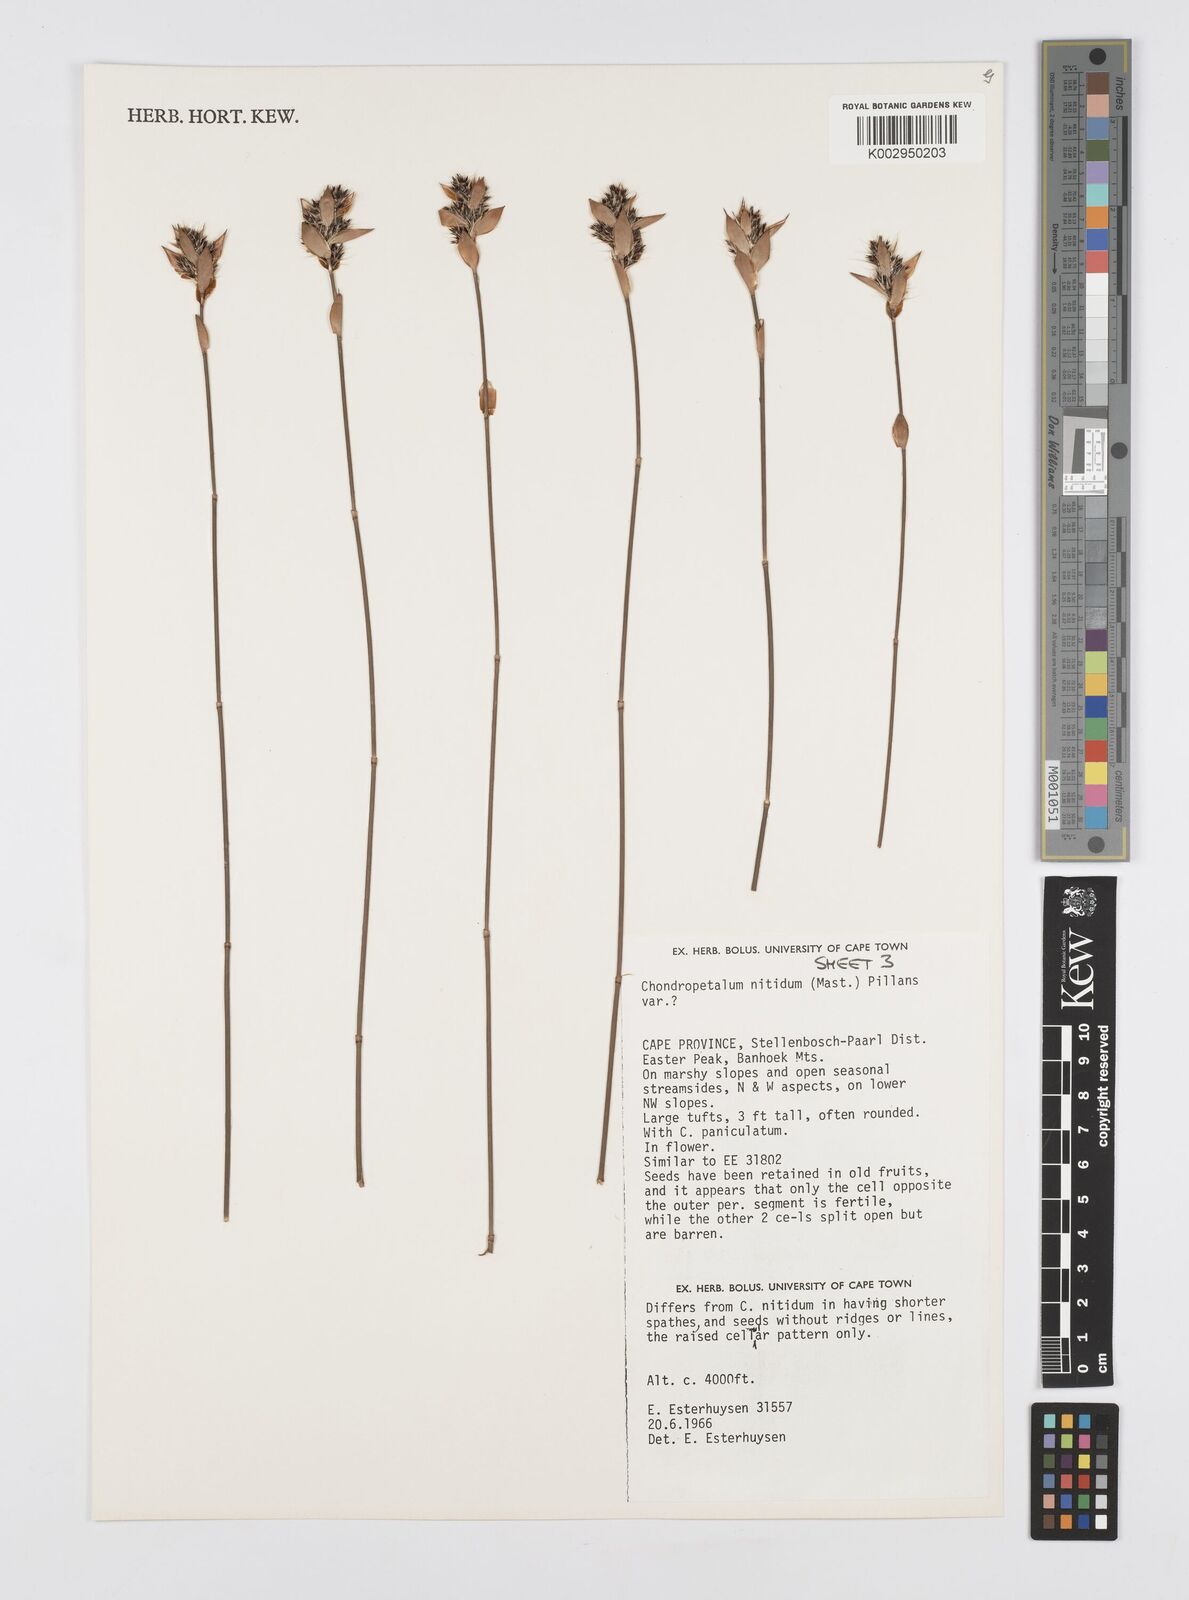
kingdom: Plantae
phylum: Tracheophyta
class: Liliopsida
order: Poales
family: Restionaceae
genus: Askidiosperma
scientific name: Askidiosperma nitidum
